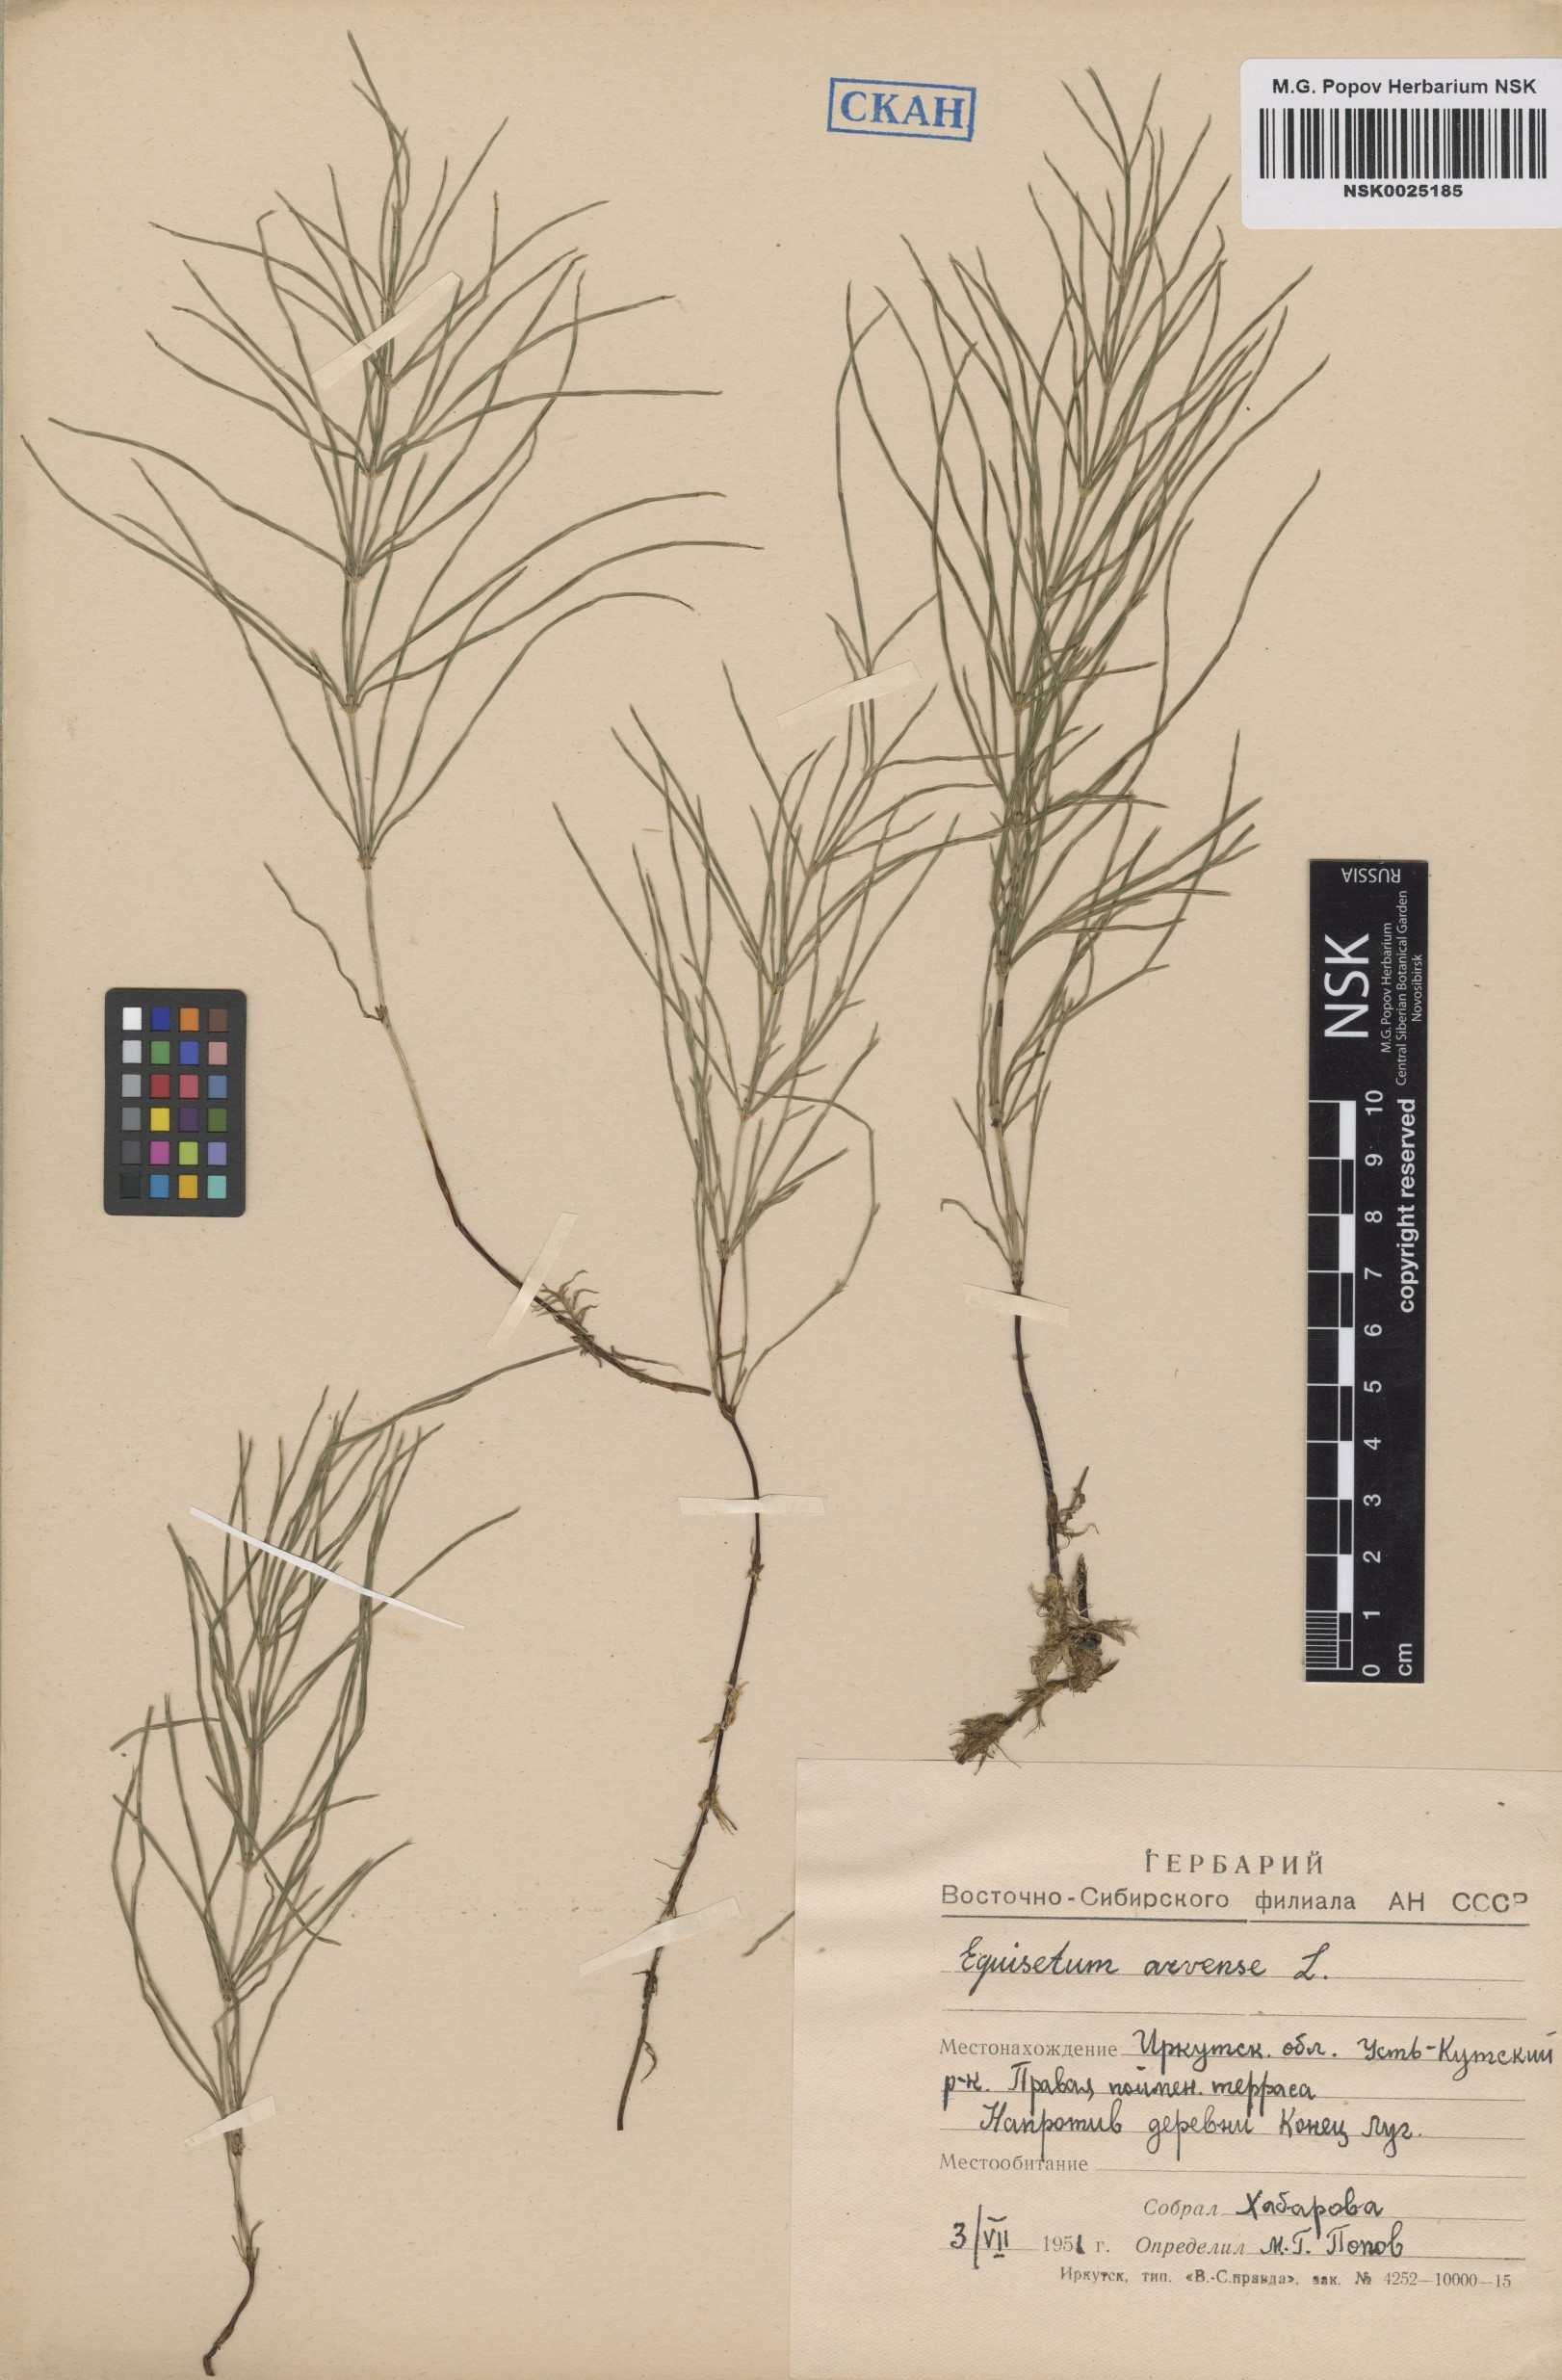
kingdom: Plantae
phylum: Tracheophyta
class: Polypodiopsida
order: Equisetales
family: Equisetaceae
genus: Equisetum
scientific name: Equisetum arvense
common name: Field horsetail
